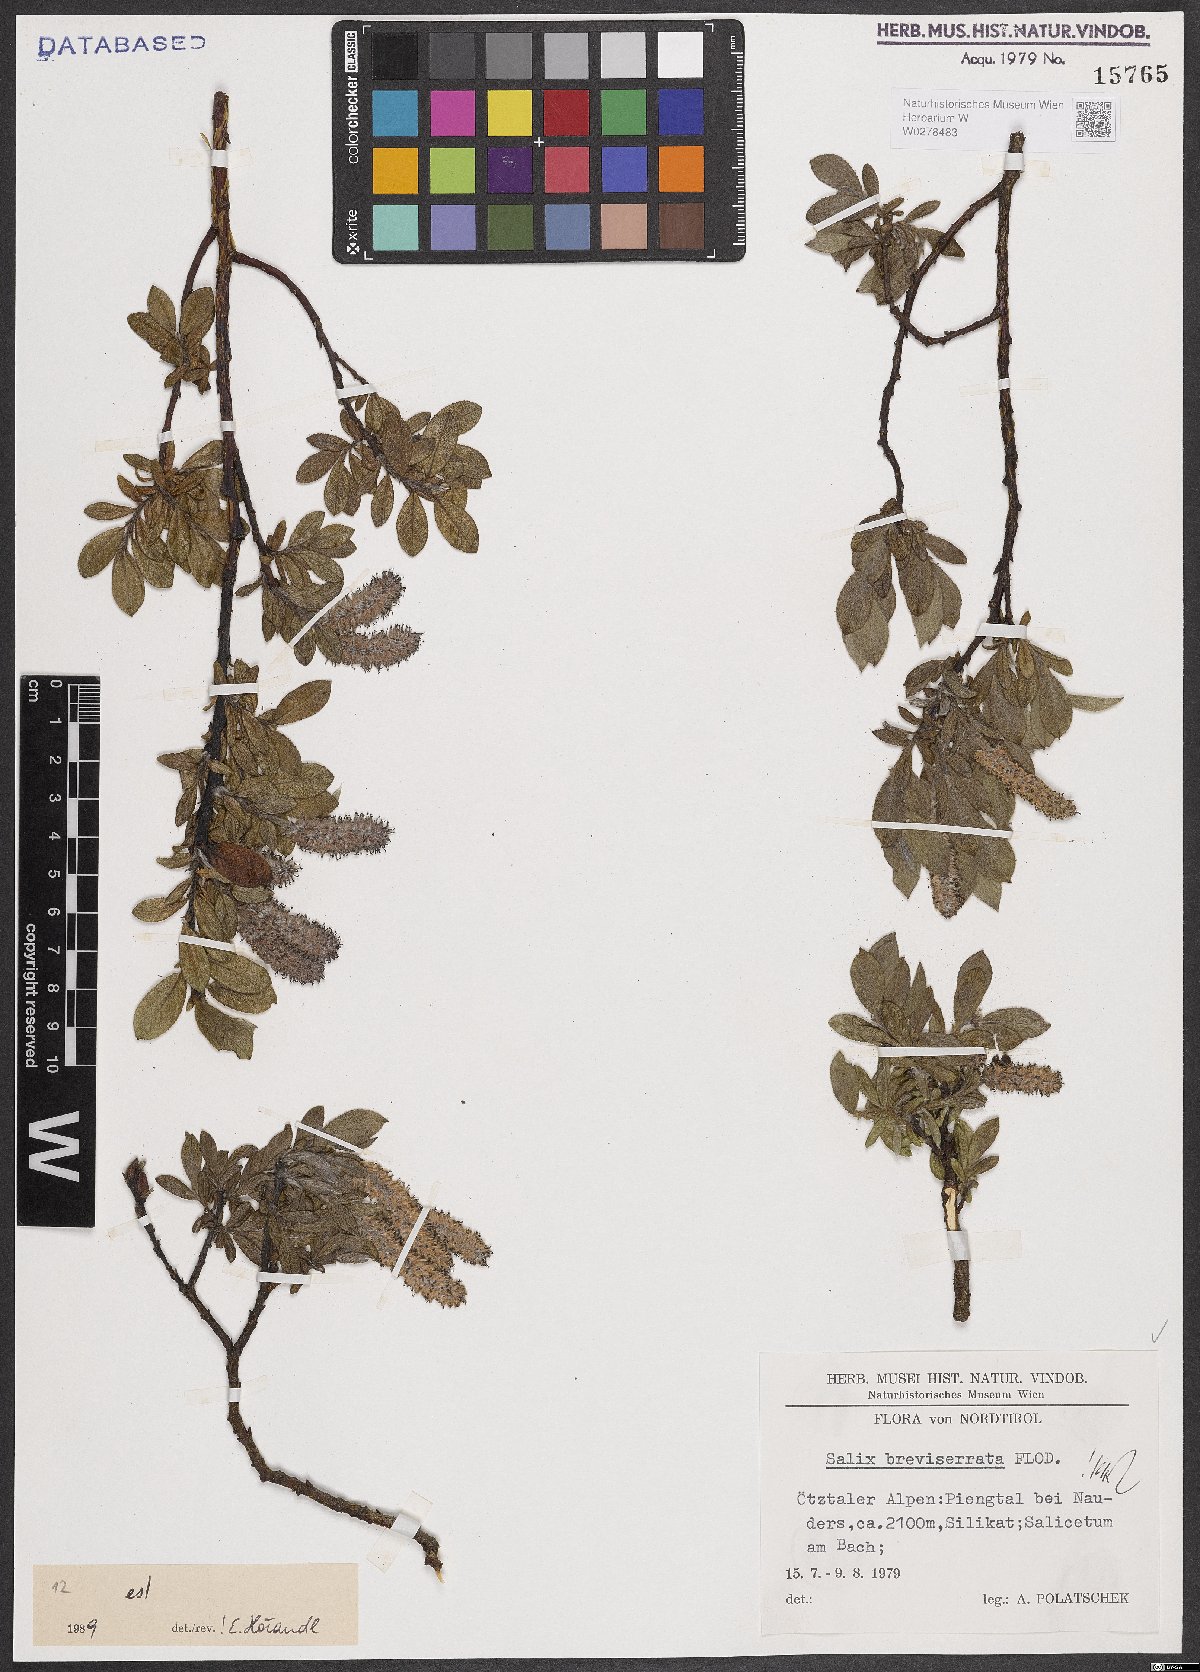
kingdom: Plantae
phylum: Tracheophyta
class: Magnoliopsida
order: Malpighiales
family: Salicaceae
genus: Salix
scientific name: Salix breviserrata
